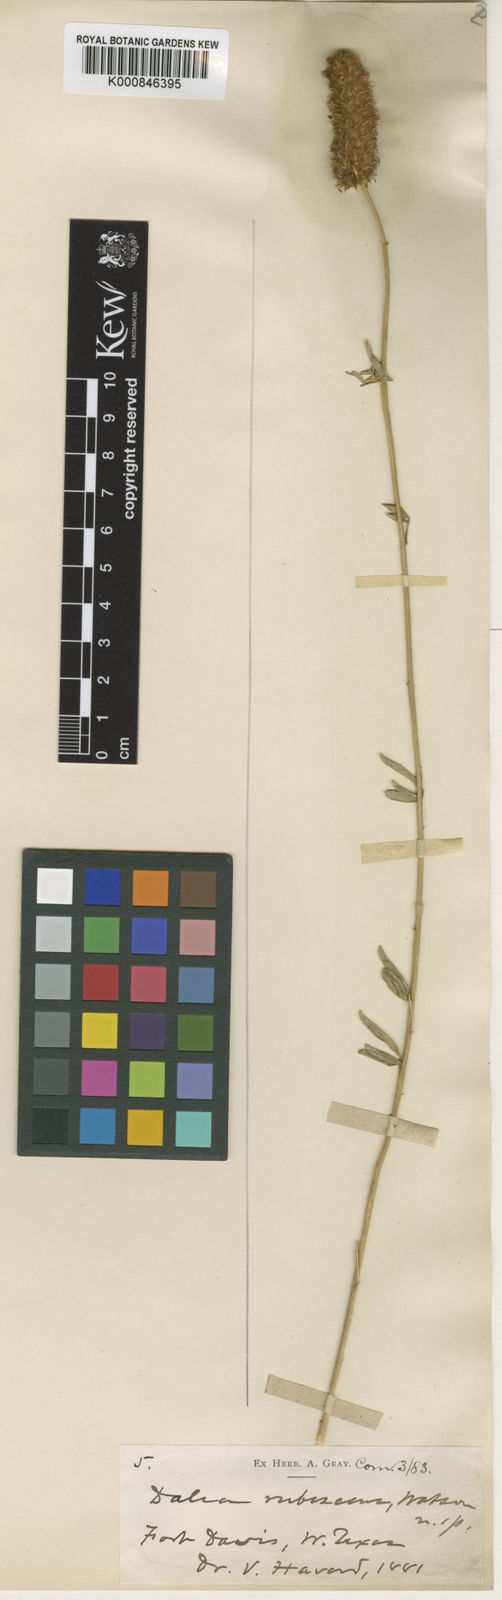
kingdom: Plantae
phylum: Tracheophyta
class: Magnoliopsida
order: Fabales
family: Fabaceae
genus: Dalea
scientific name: Dalea rubescens
